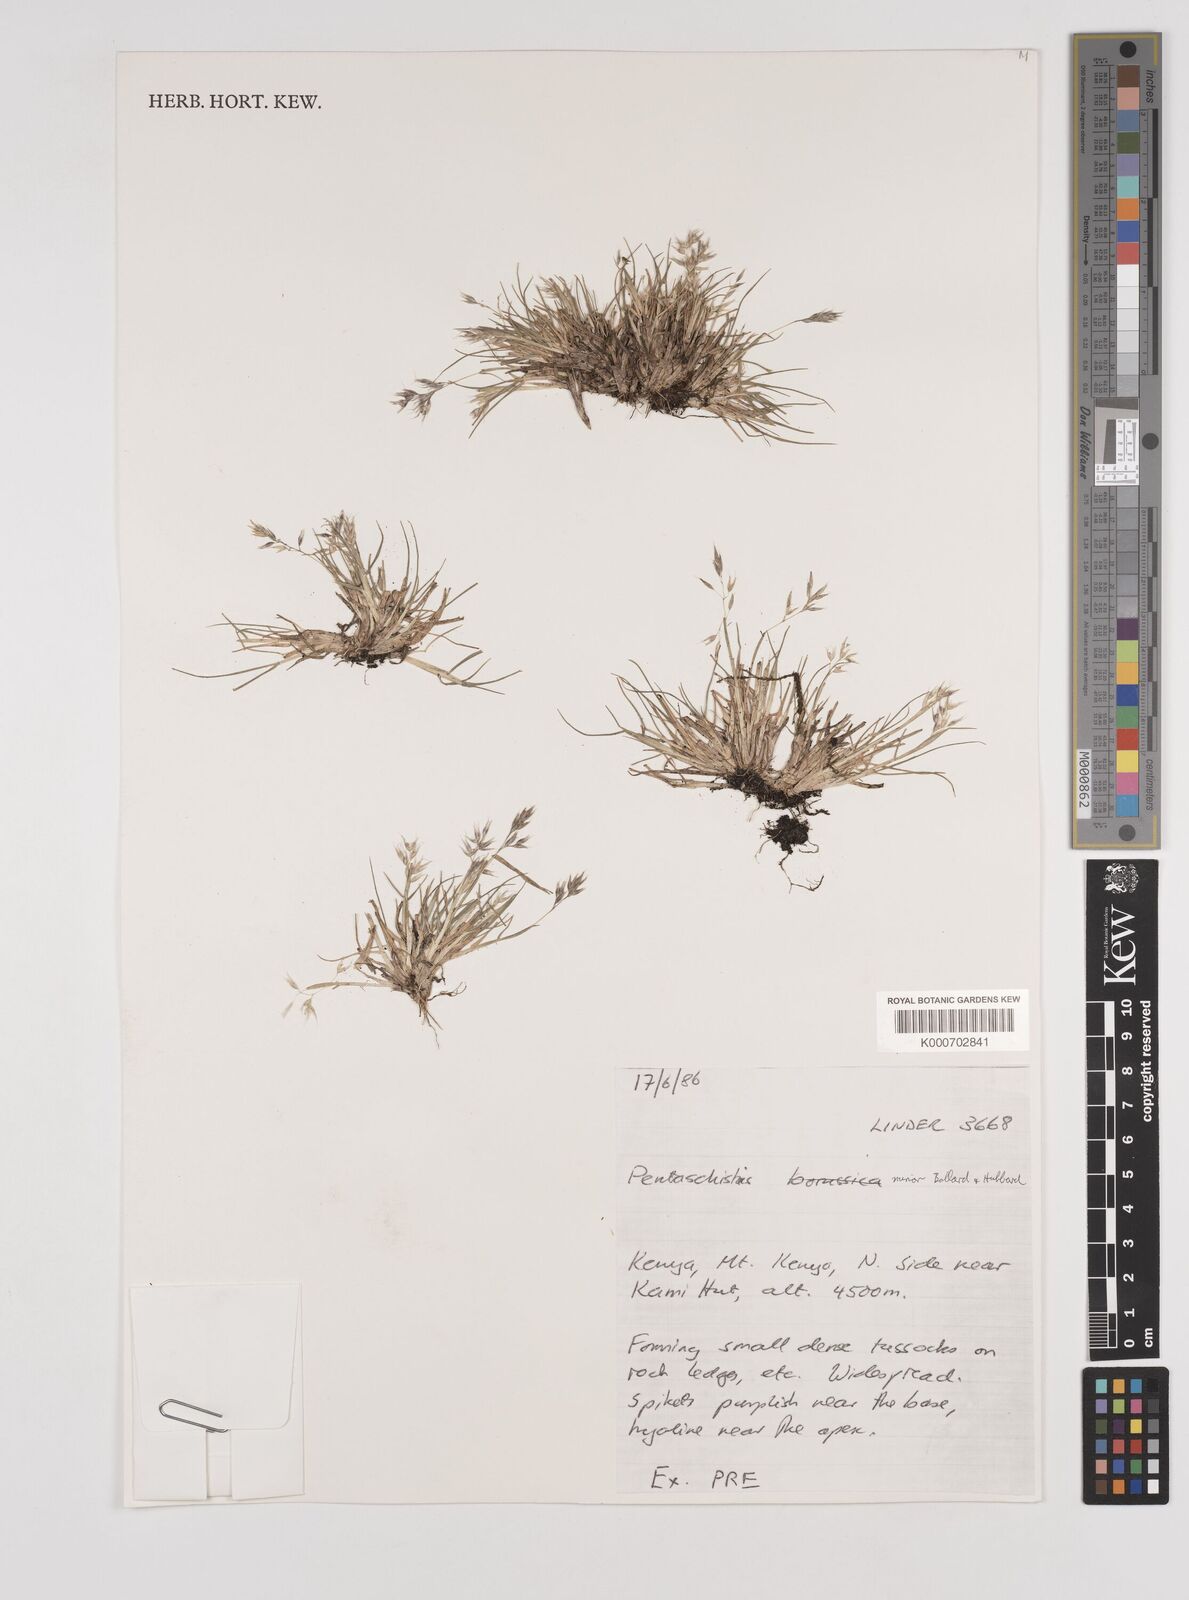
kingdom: Plantae
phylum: Tracheophyta
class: Liliopsida
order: Poales
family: Poaceae
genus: Pentameris
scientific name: Pentameris minor
